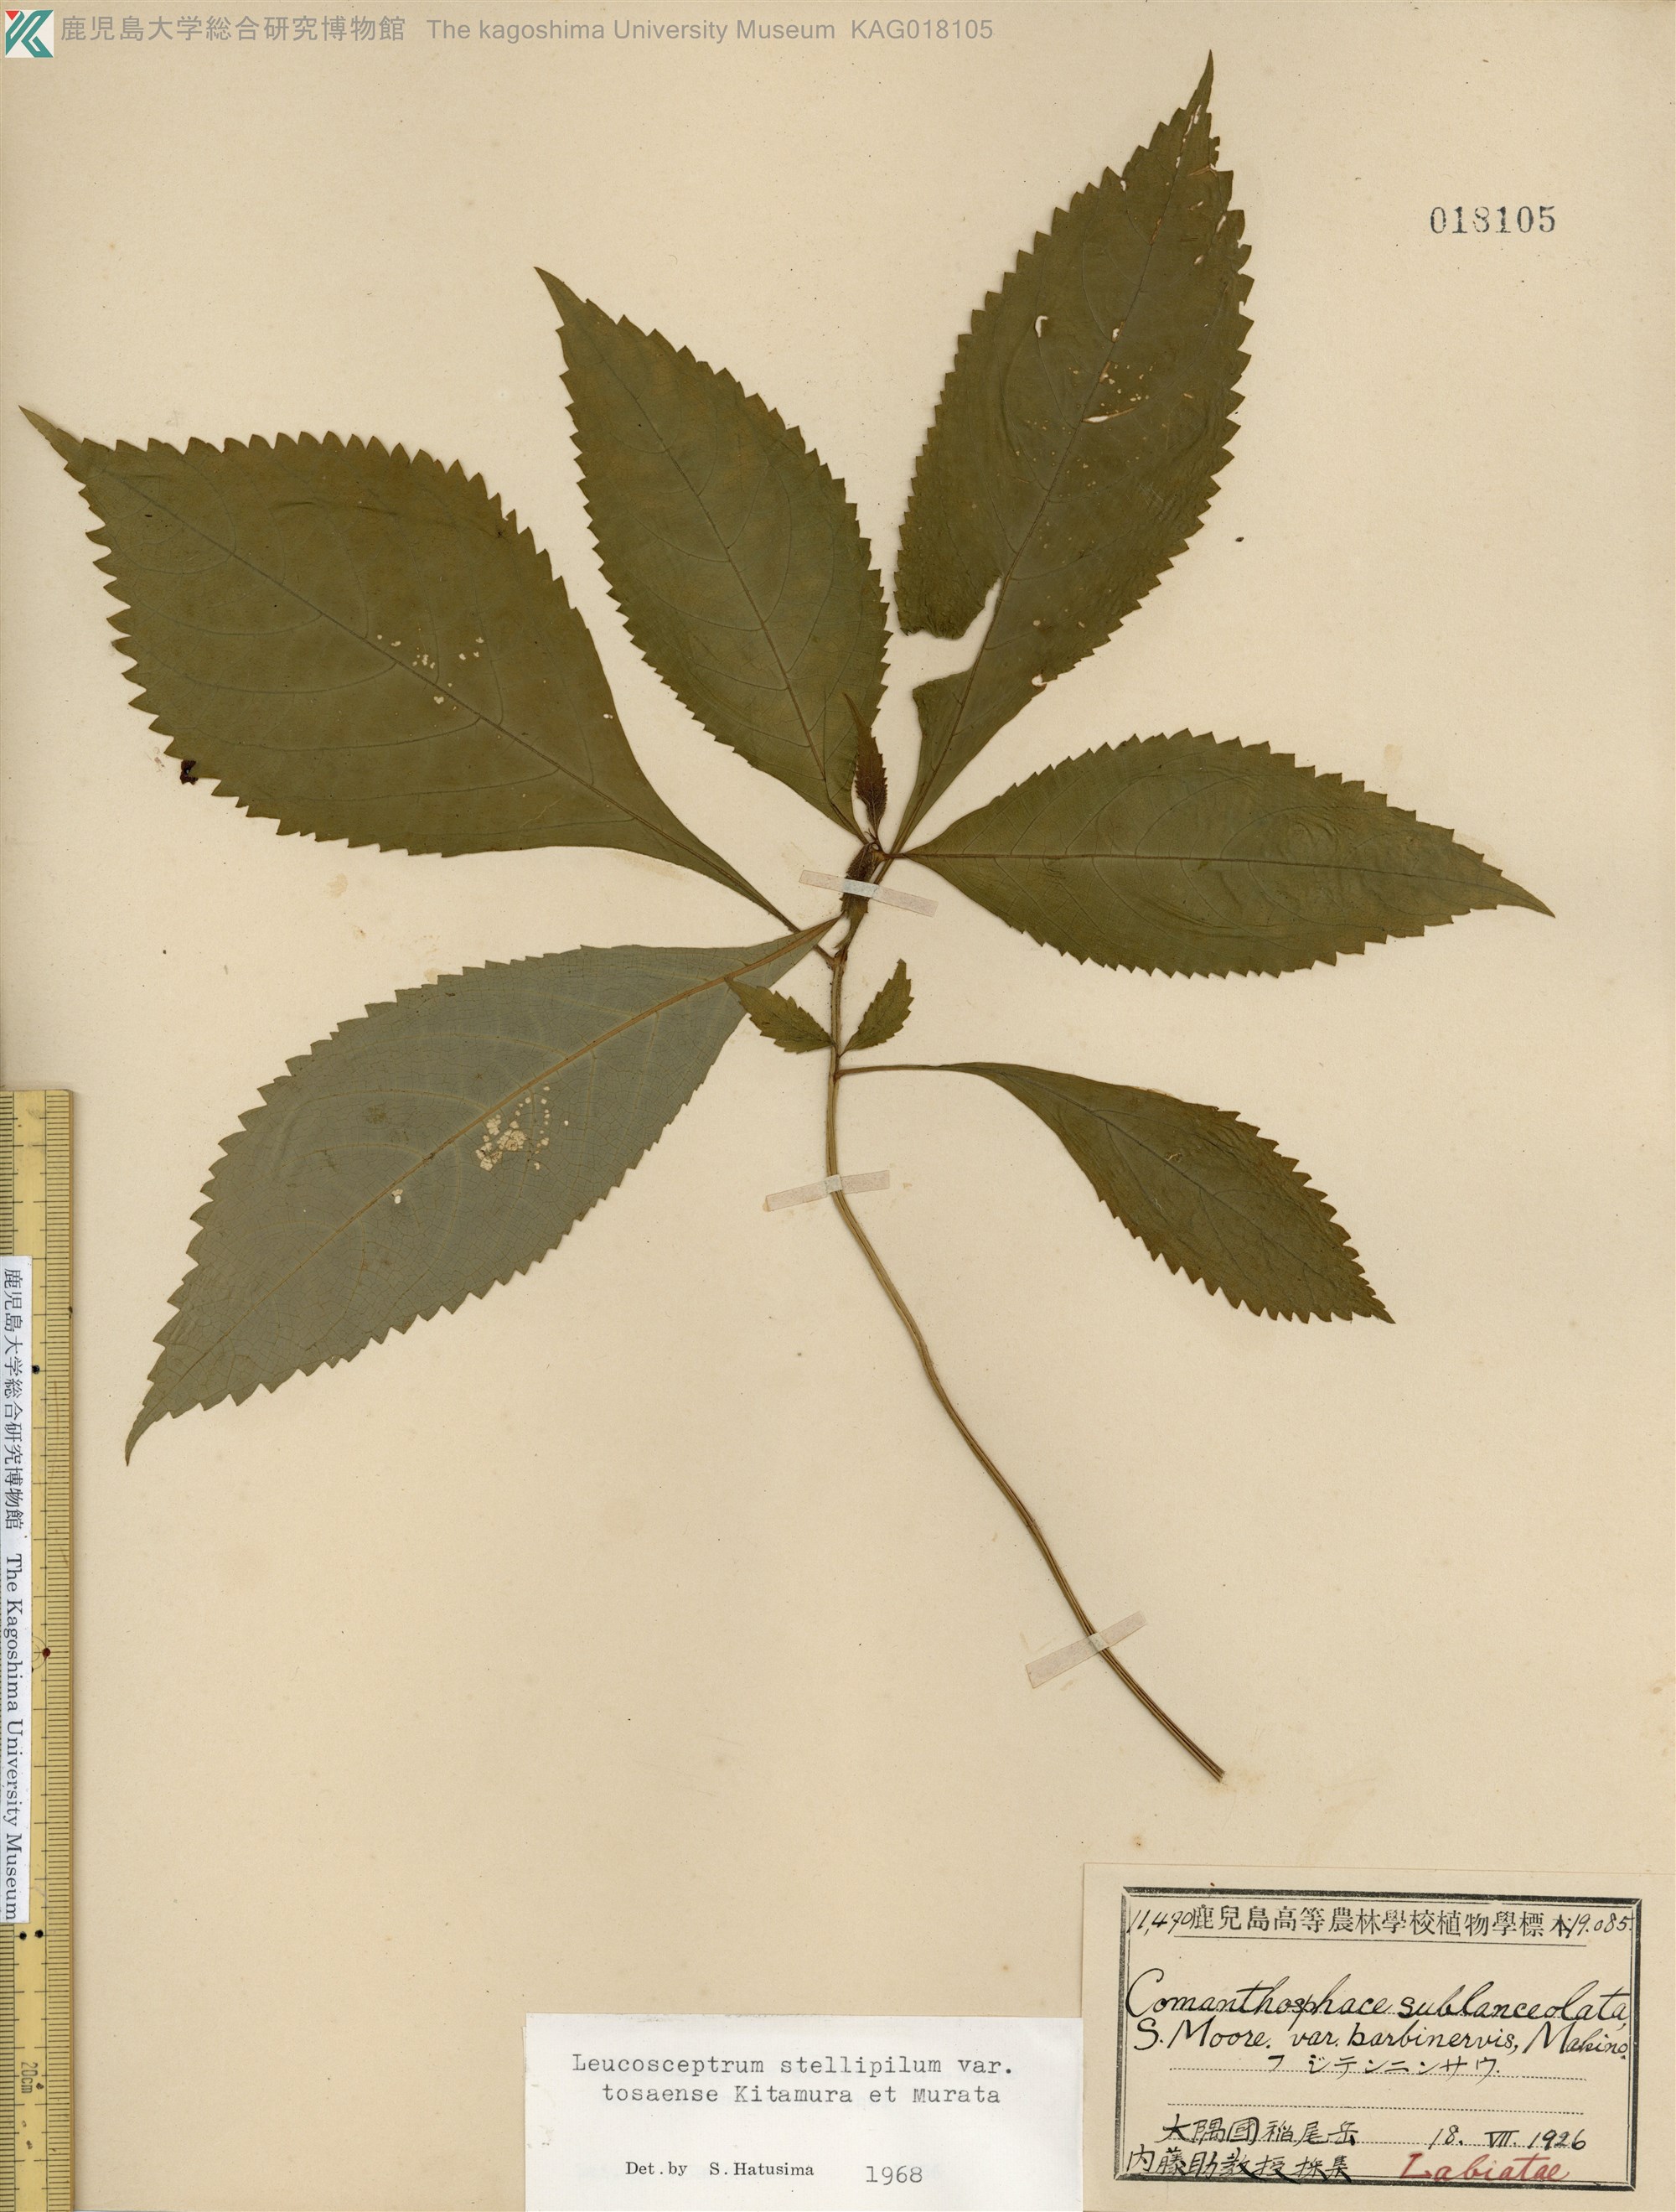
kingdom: Plantae
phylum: Tracheophyta
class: Magnoliopsida
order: Lamiales
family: Lamiaceae
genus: Comanthosphace
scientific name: Comanthosphace japonica
